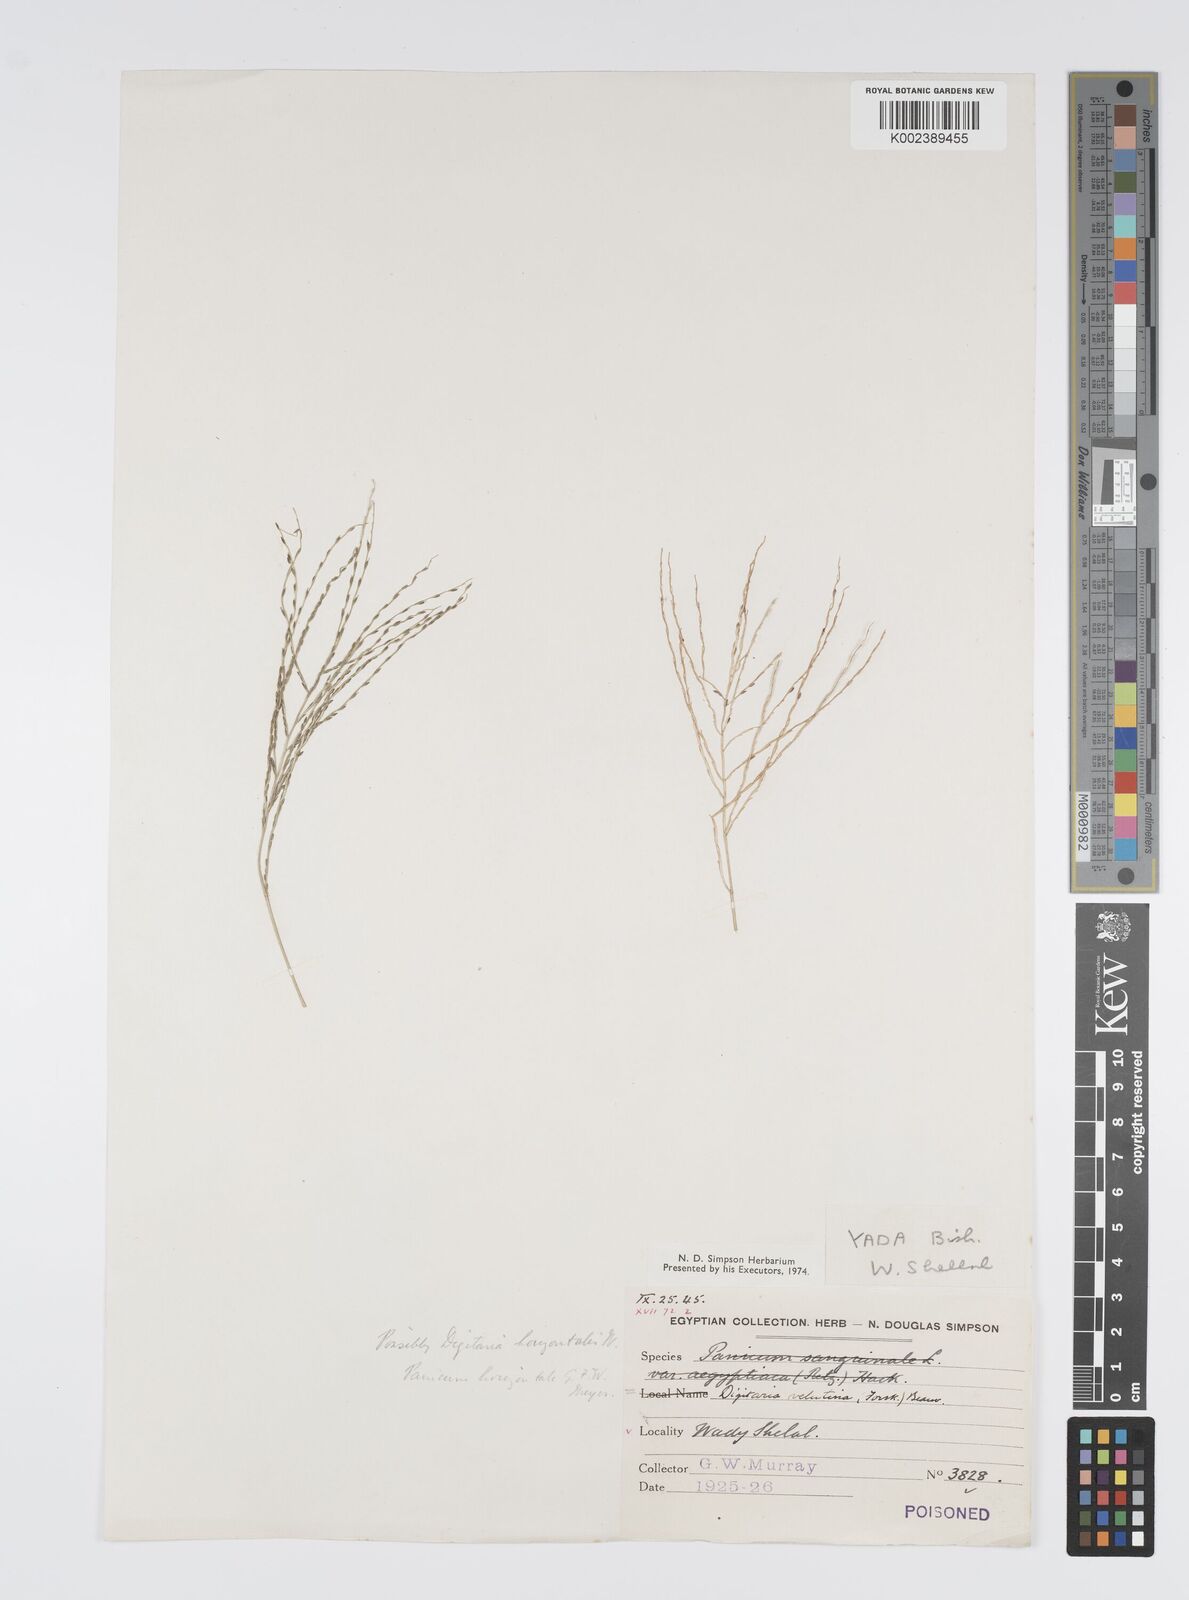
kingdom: Plantae
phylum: Tracheophyta
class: Liliopsida
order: Poales
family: Poaceae
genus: Digitaria
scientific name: Digitaria velutina
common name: Long-plume finger grass
